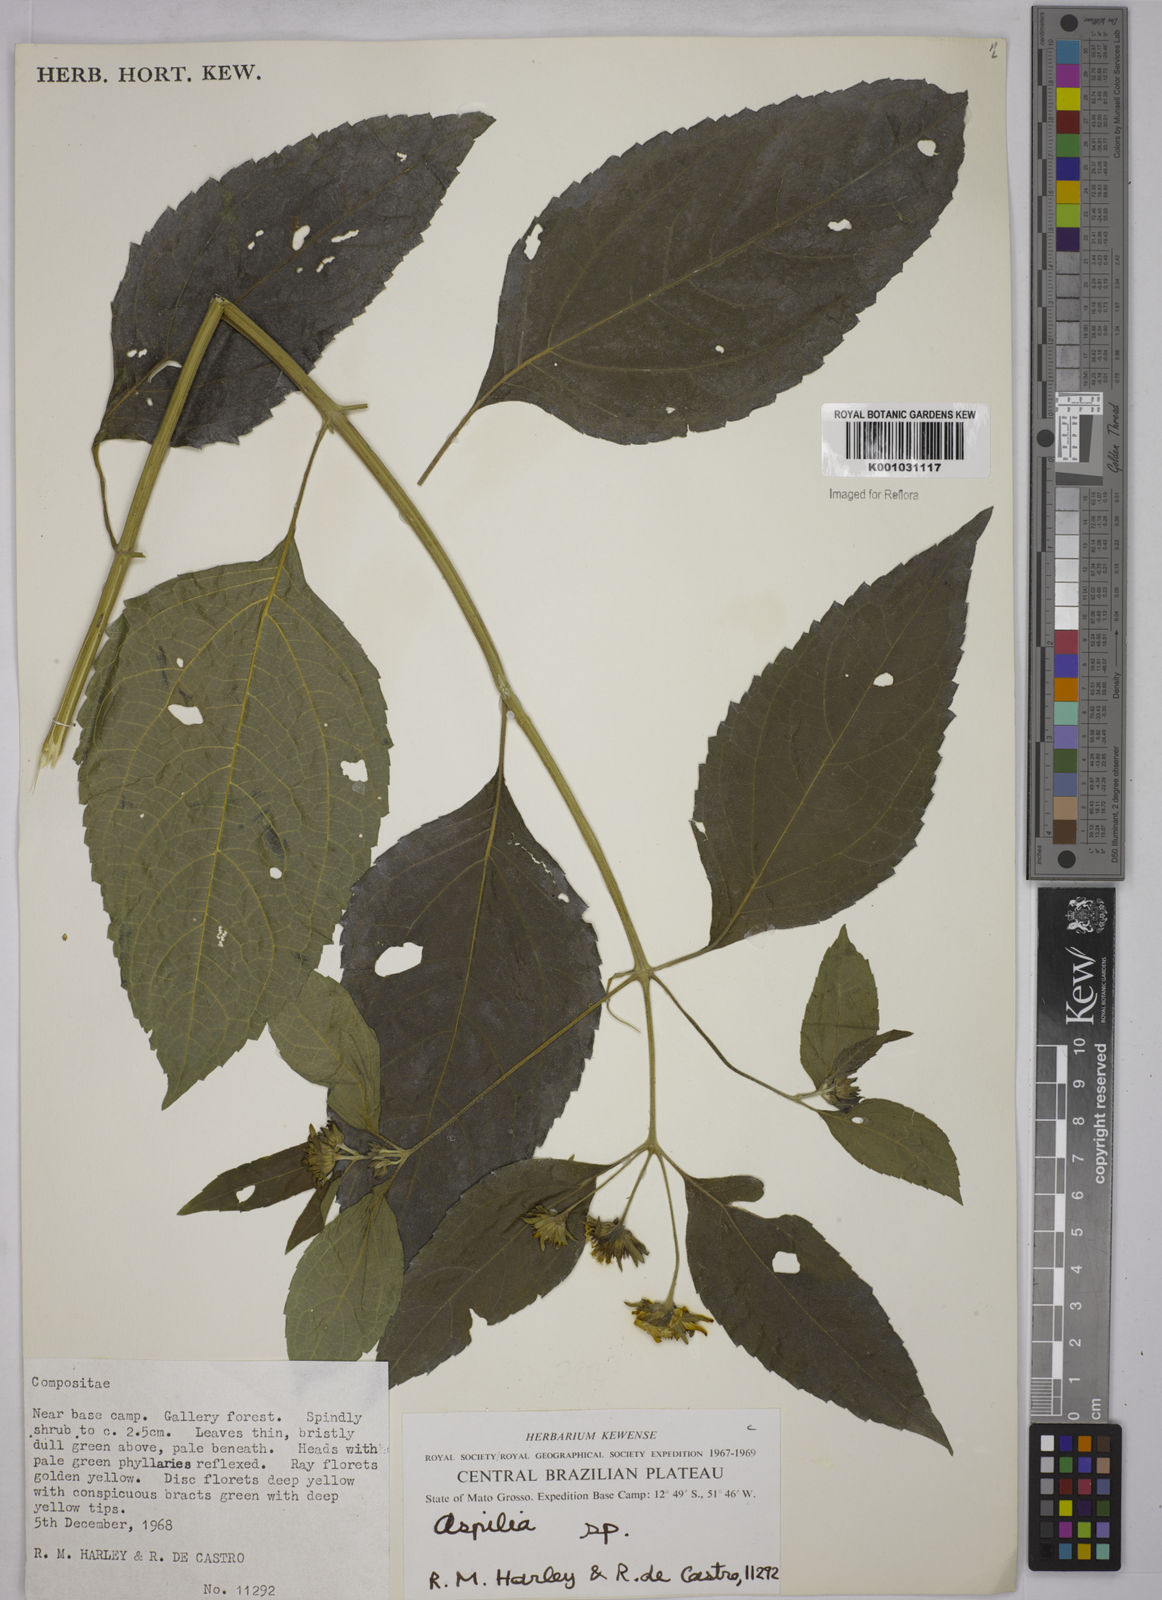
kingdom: Plantae
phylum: Tracheophyta
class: Magnoliopsida
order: Asterales
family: Asteraceae
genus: Aspilia
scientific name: Aspilia
